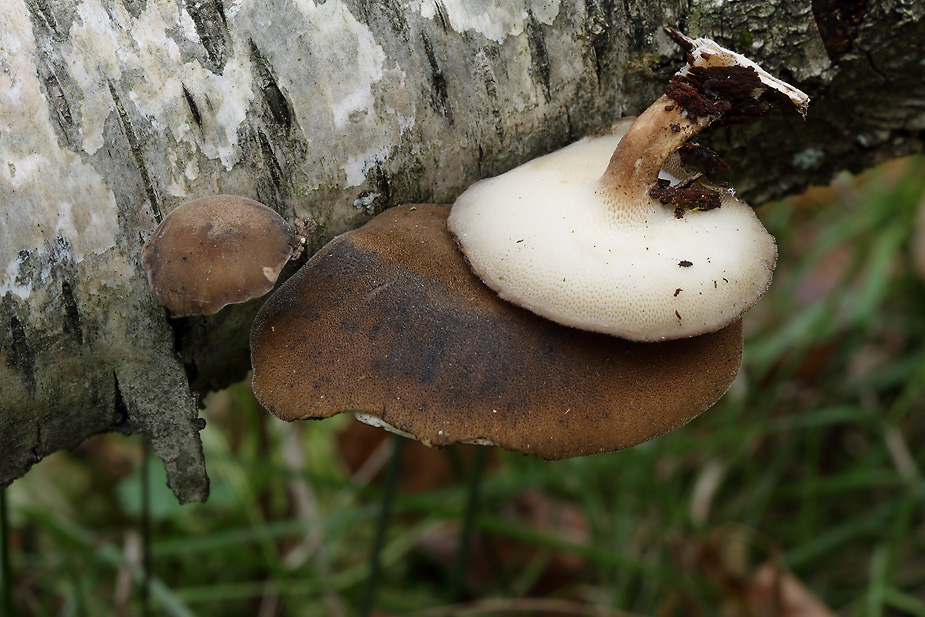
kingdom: Fungi
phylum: Basidiomycota
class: Agaricomycetes
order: Polyporales
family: Polyporaceae
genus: Lentinus
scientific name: Lentinus brumalis
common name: vinter-stilkporesvamp
